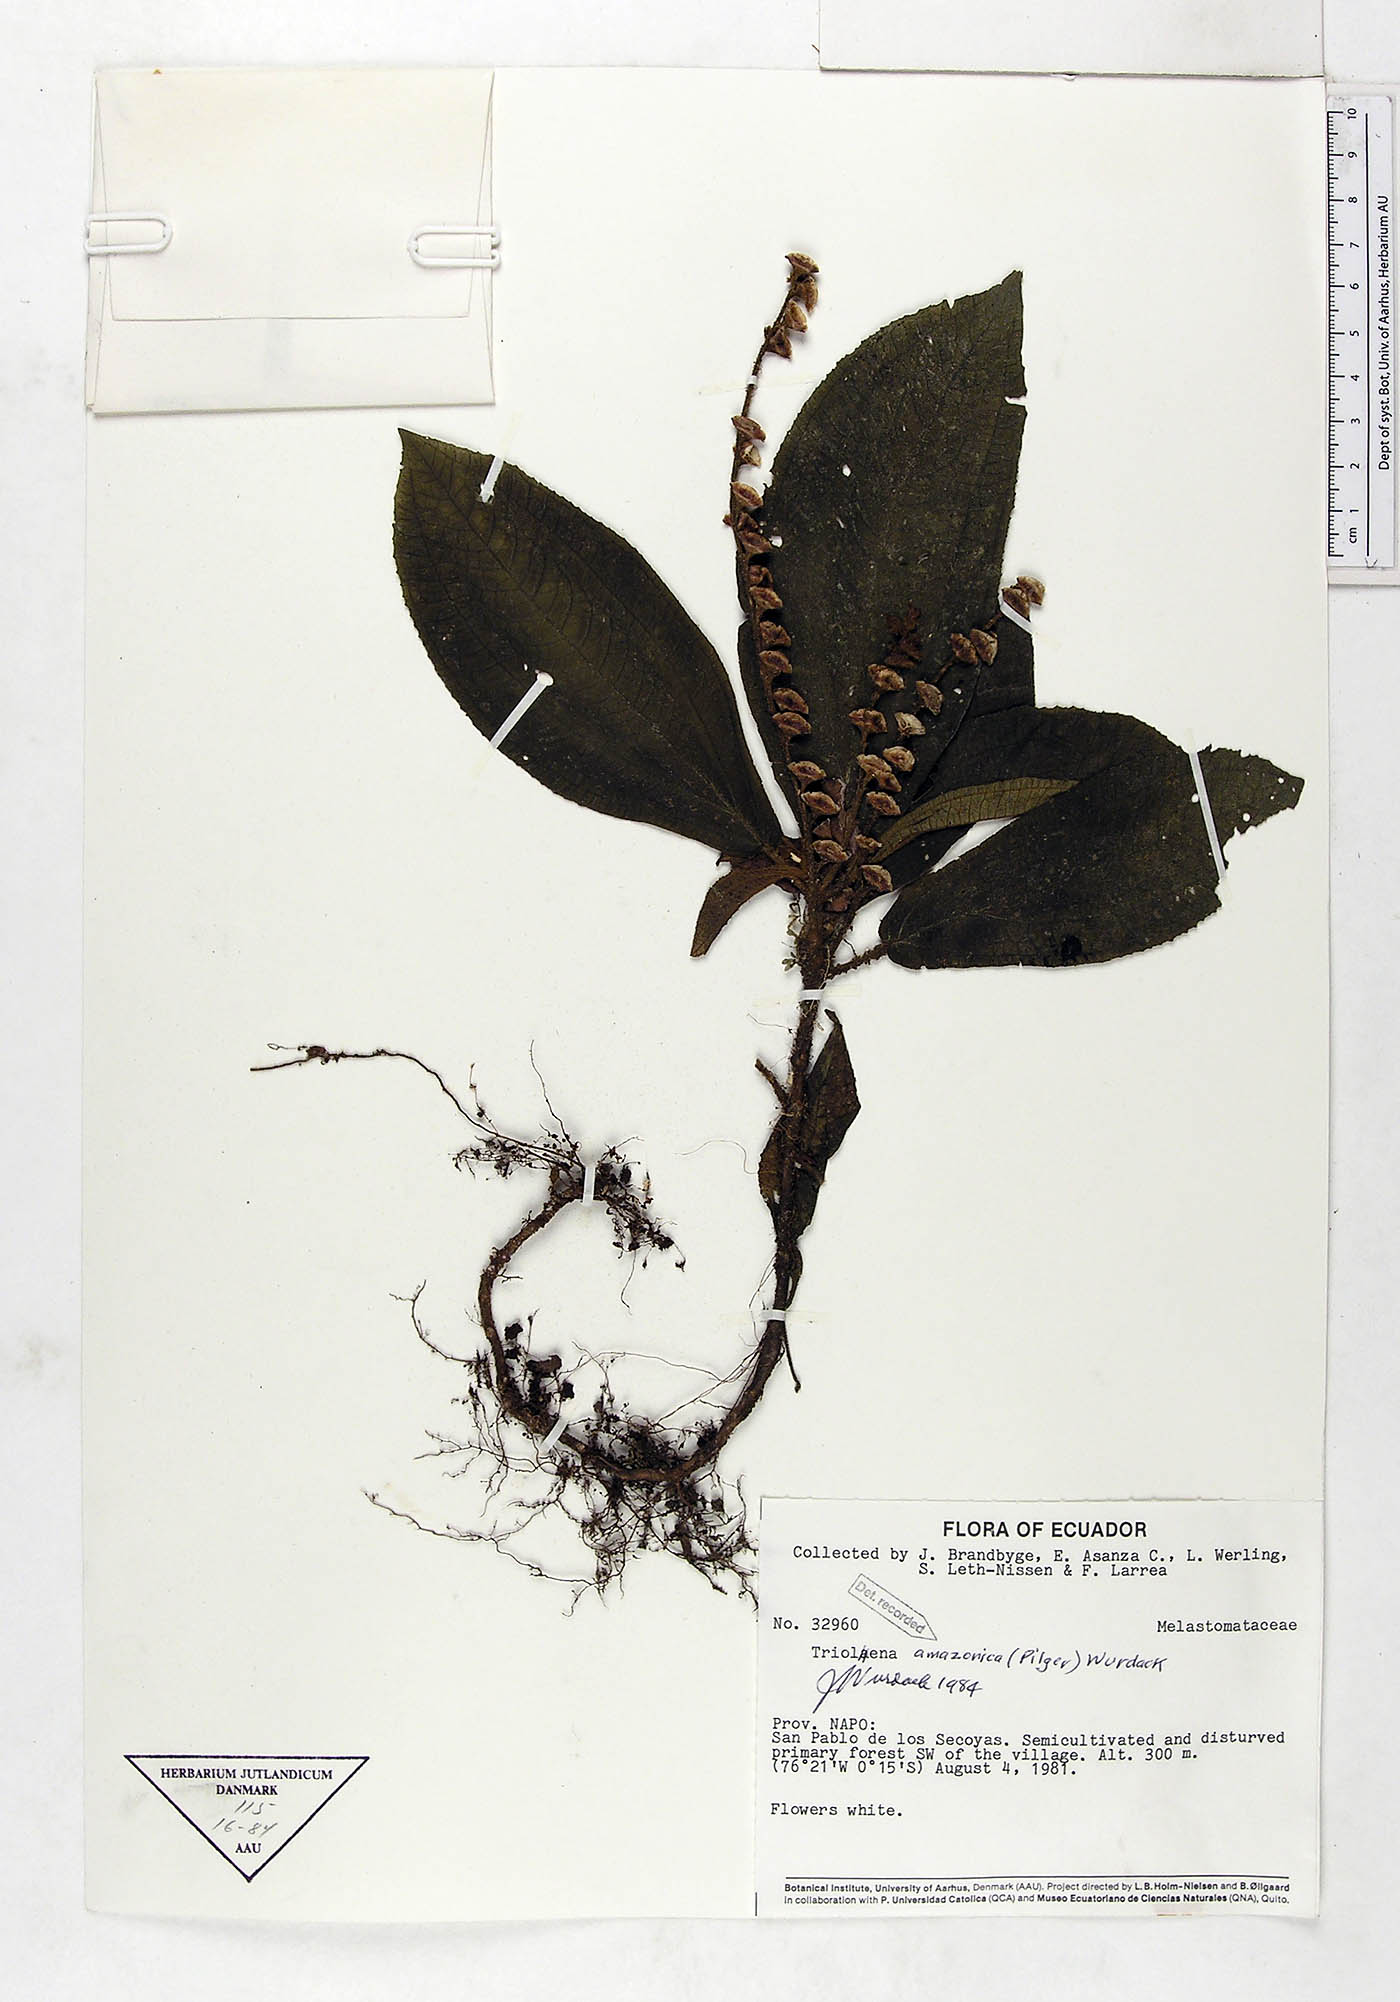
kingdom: Plantae
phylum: Tracheophyta
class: Magnoliopsida
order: Myrtales
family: Melastomataceae
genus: Triolena
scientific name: Triolena amazonica
